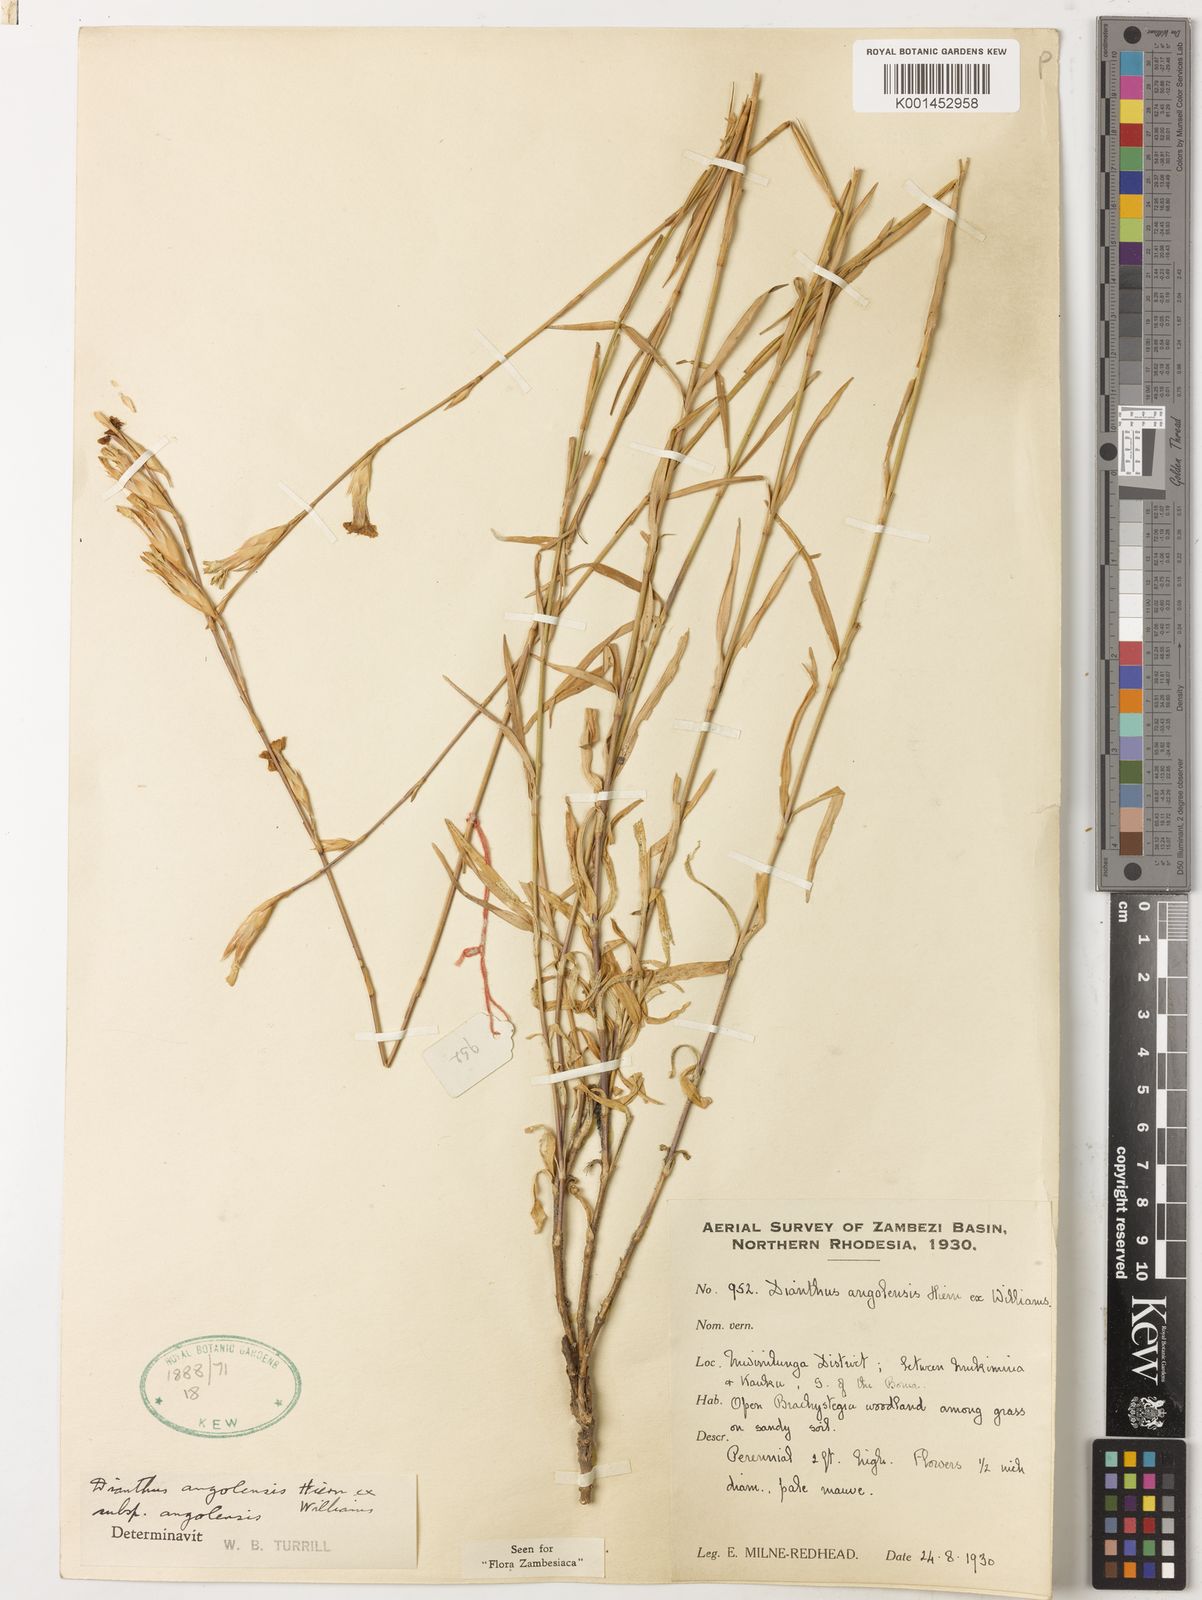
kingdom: Plantae
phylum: Tracheophyta
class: Magnoliopsida
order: Caryophyllales
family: Caryophyllaceae
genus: Dianthus
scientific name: Dianthus angolensis
